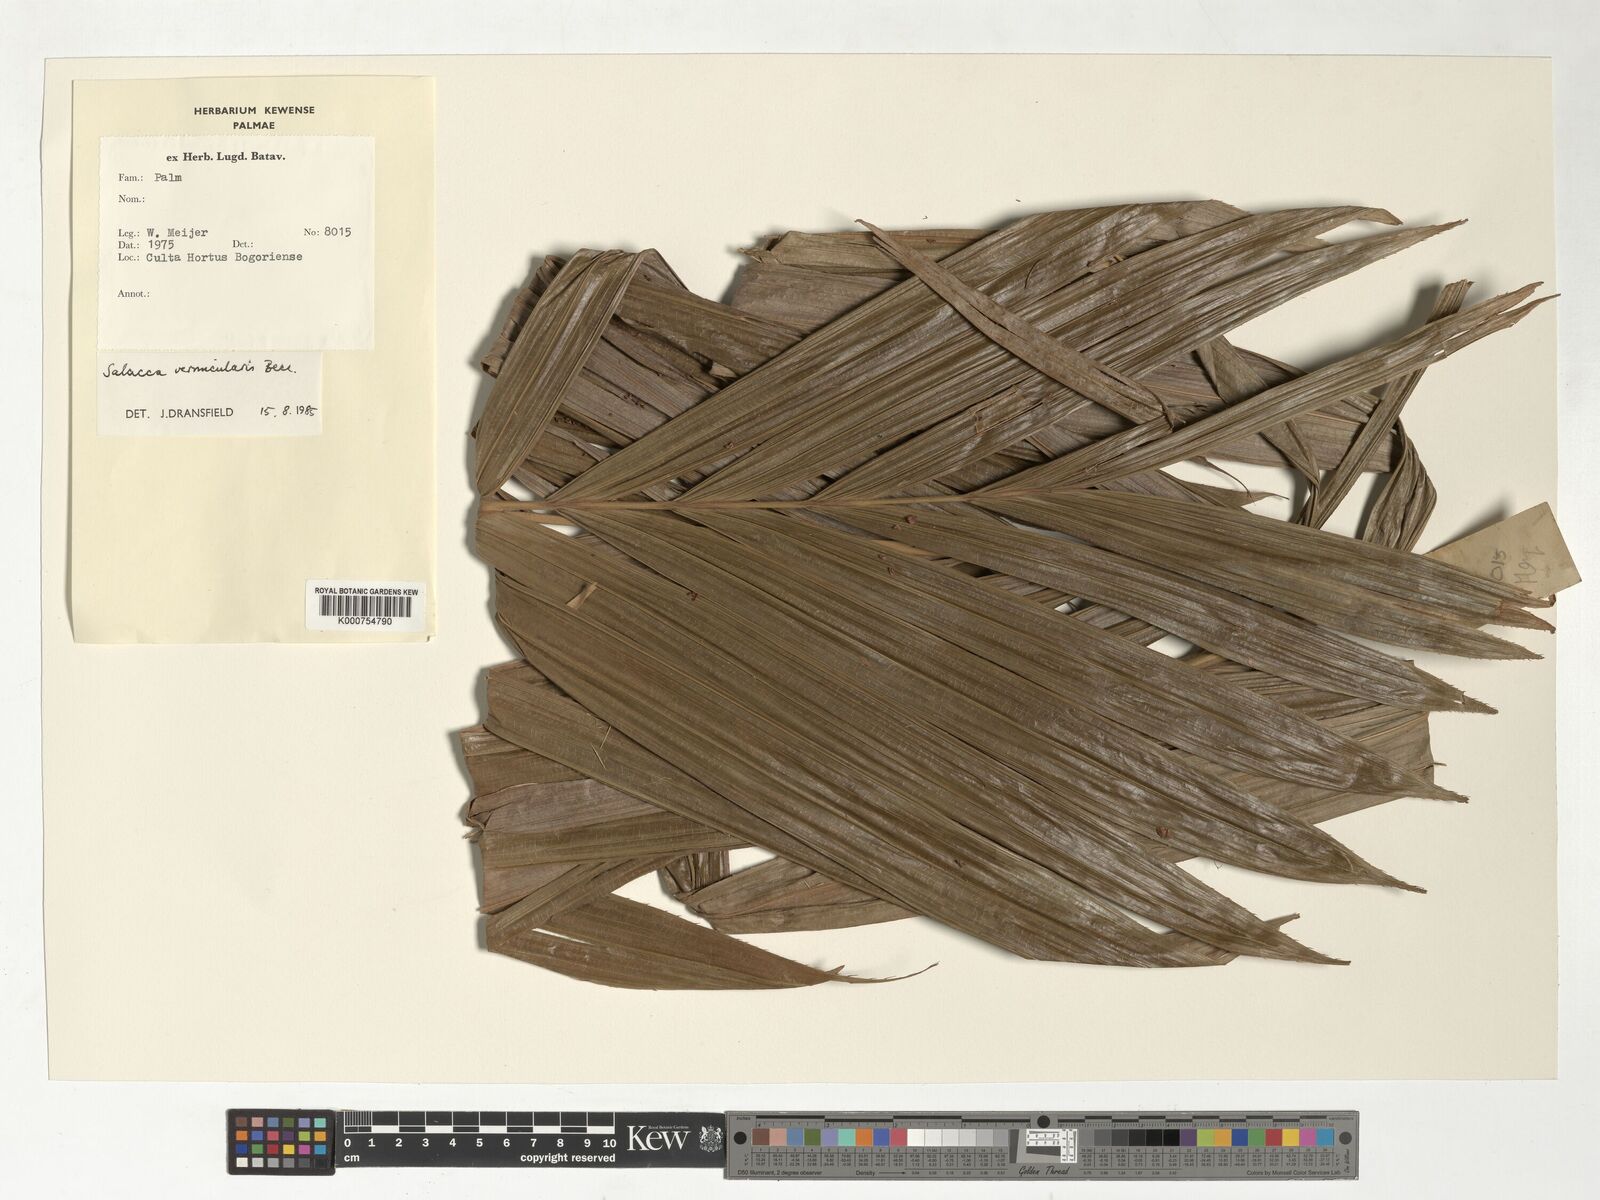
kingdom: Plantae
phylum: Tracheophyta
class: Liliopsida
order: Arecales
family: Arecaceae
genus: Salacca
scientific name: Salacca vermicularis
